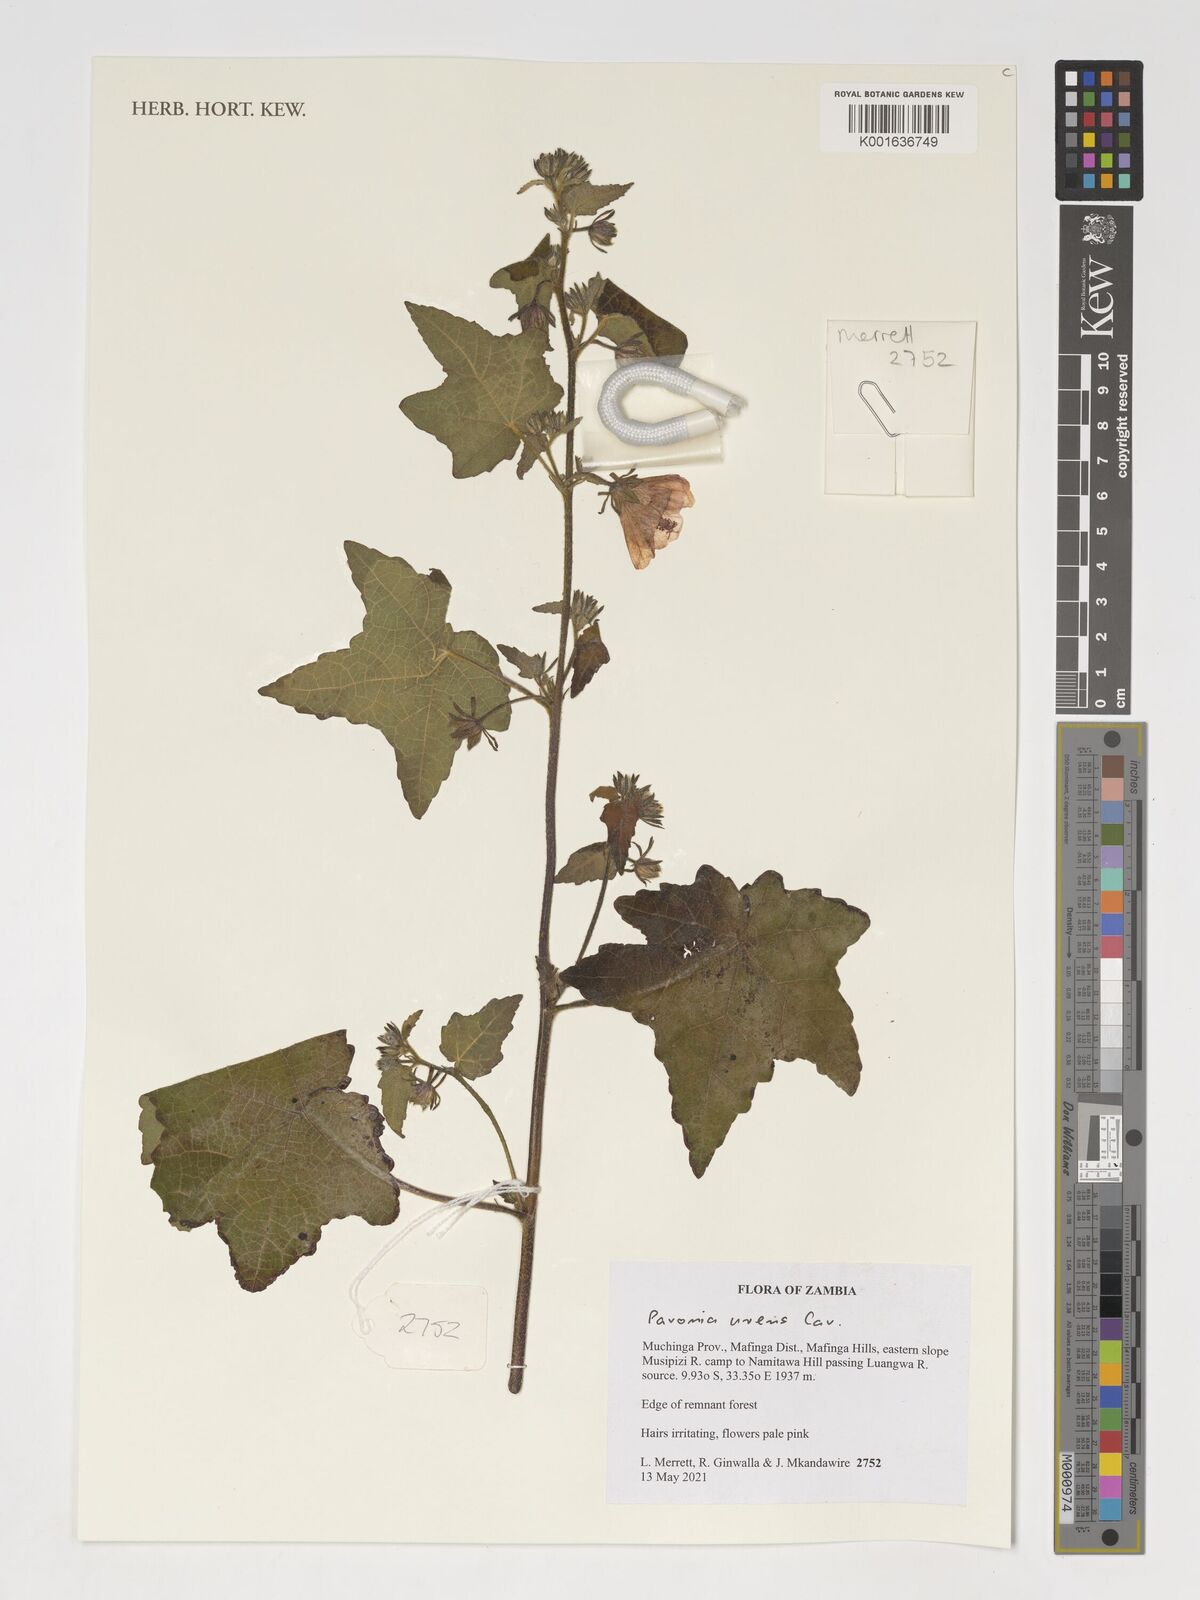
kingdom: Plantae
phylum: Tracheophyta
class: Magnoliopsida
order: Malvales
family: Malvaceae
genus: Pavonia
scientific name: Pavonia urens
